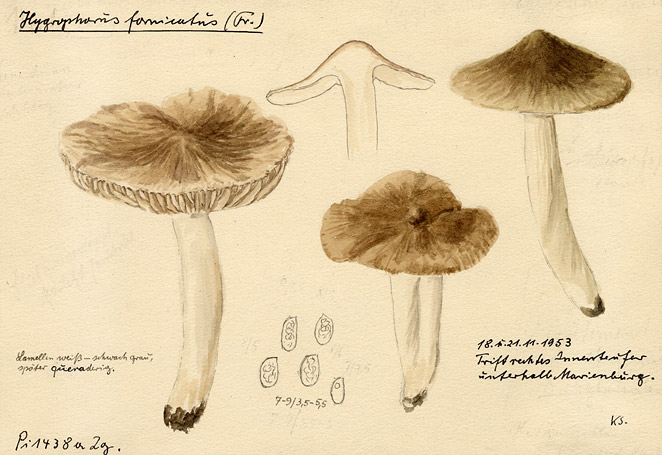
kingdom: Fungi
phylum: Basidiomycota
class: Agaricomycetes
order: Agaricales
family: Hygrophoraceae
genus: Cuphophyllus
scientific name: Cuphophyllus fornicatus
